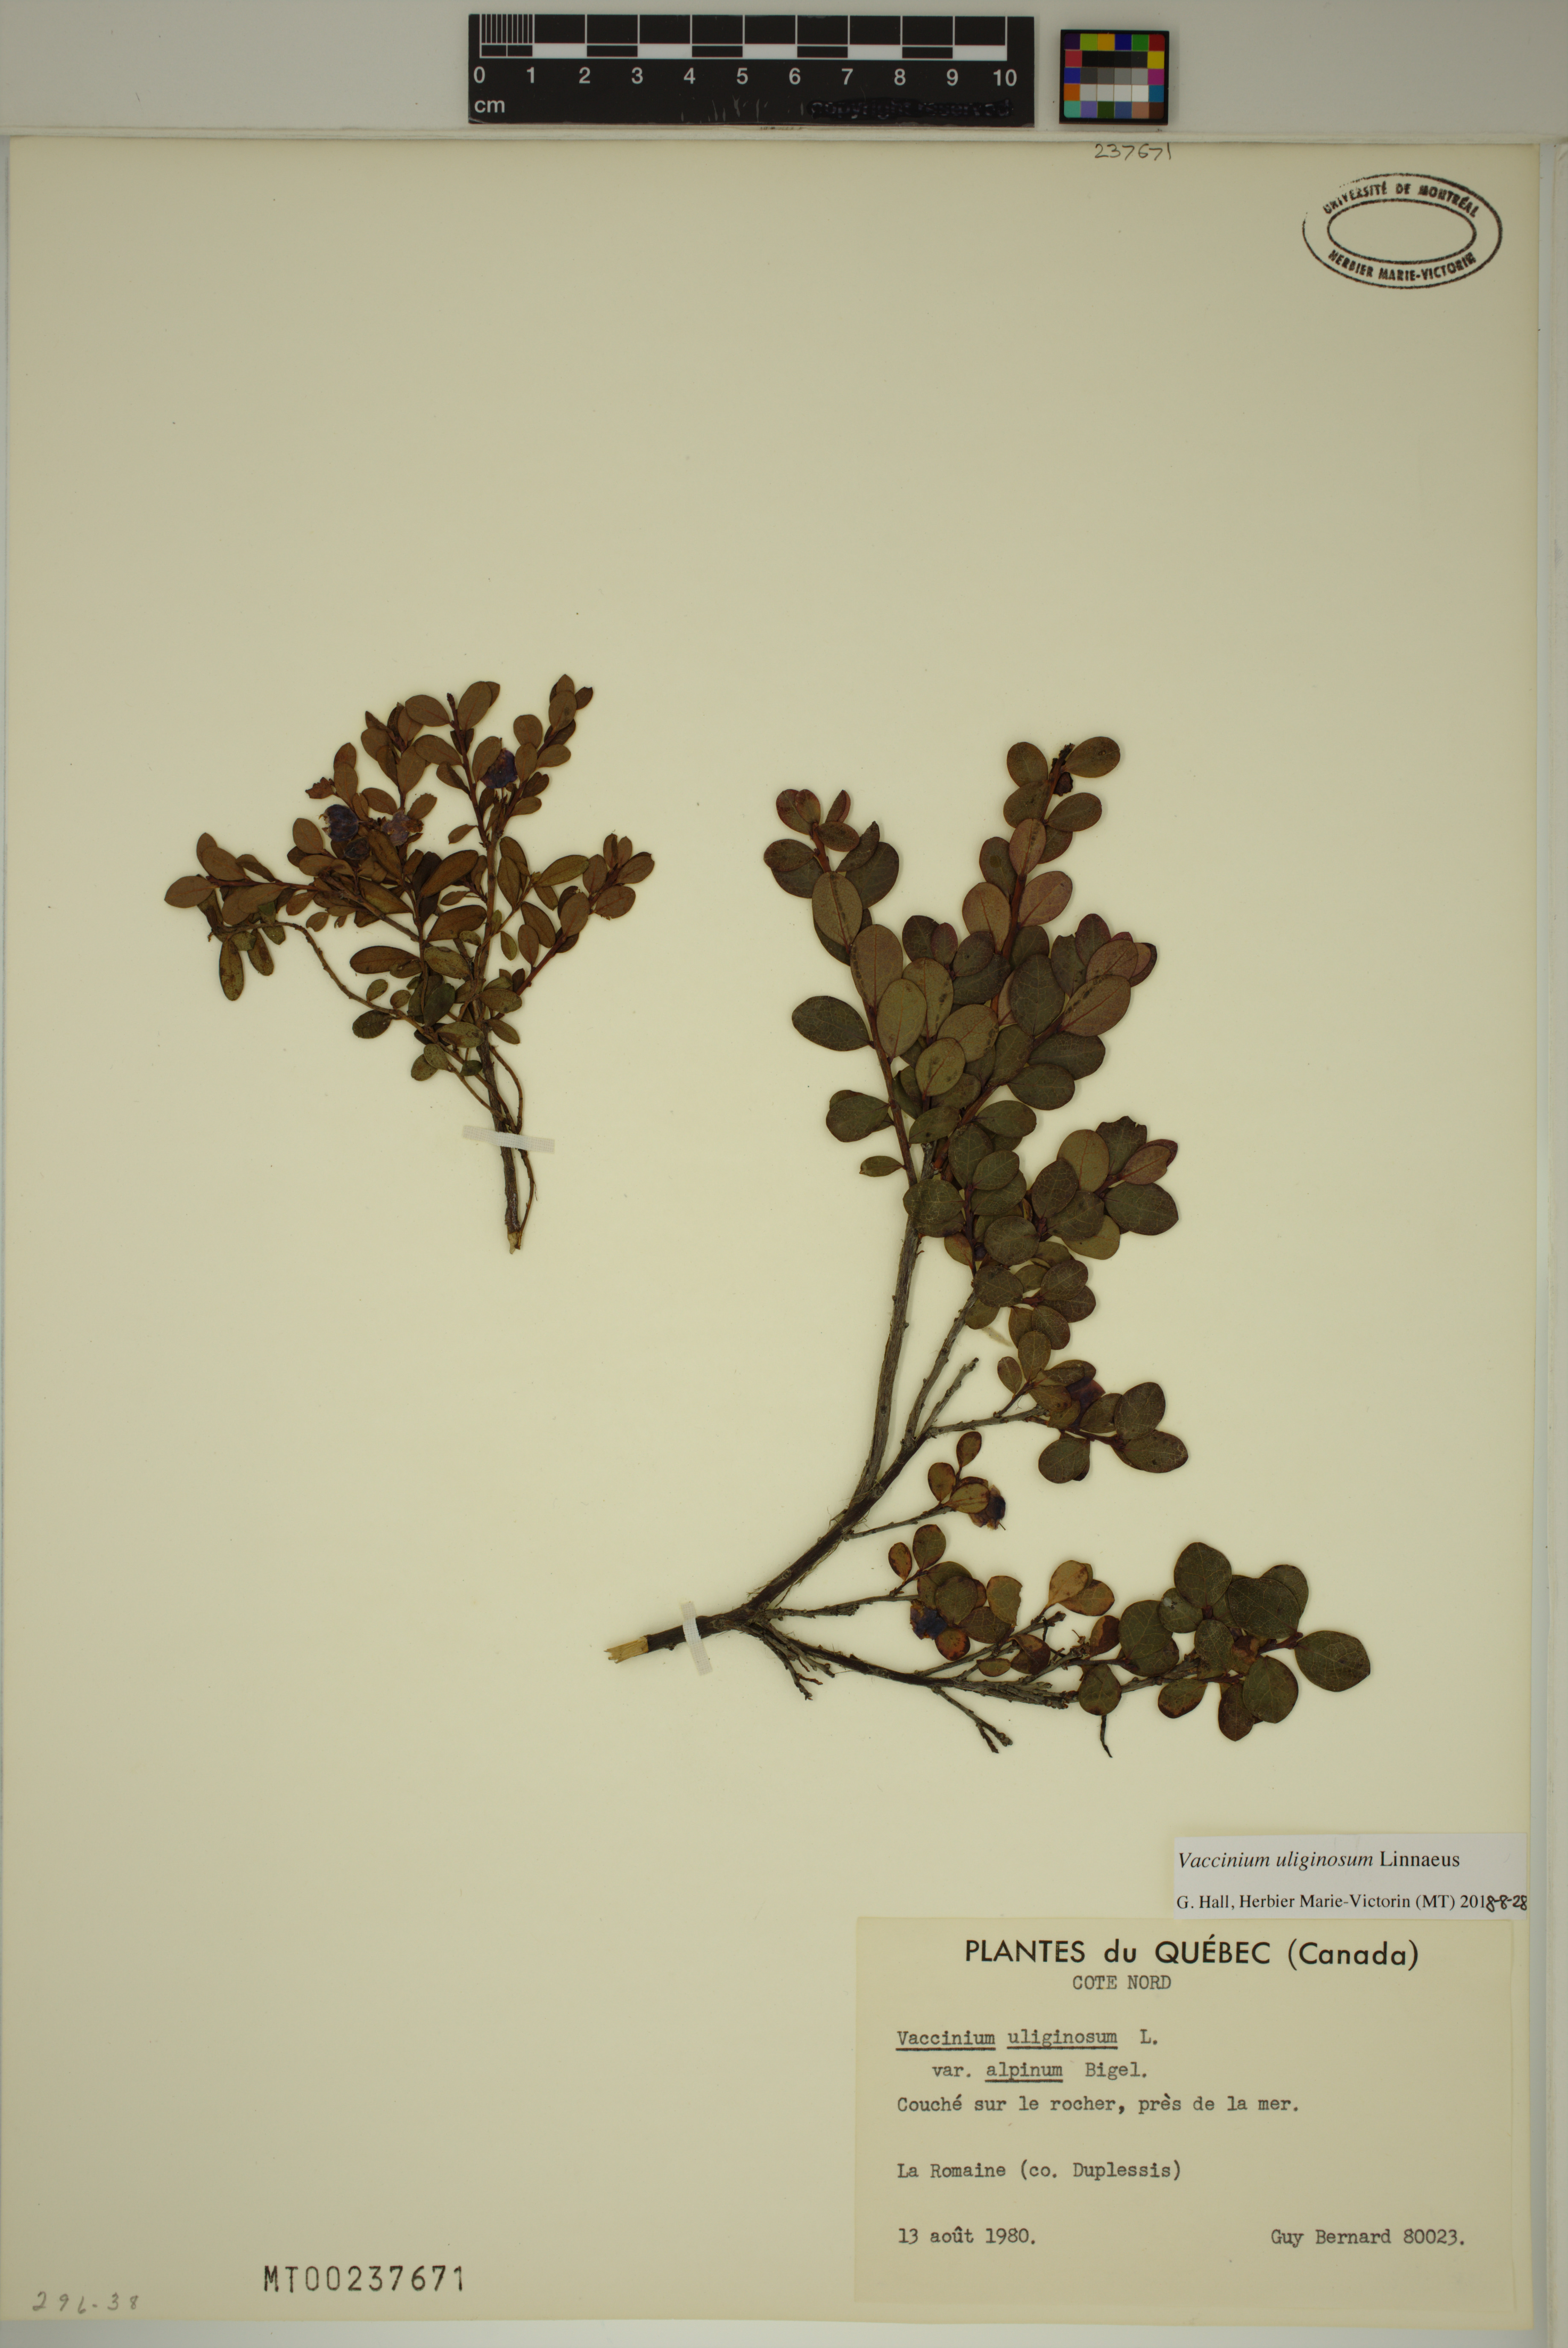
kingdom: Plantae
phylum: Tracheophyta
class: Magnoliopsida
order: Ericales
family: Ericaceae
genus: Vaccinium
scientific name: Vaccinium uliginosum
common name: Bog bilberry
